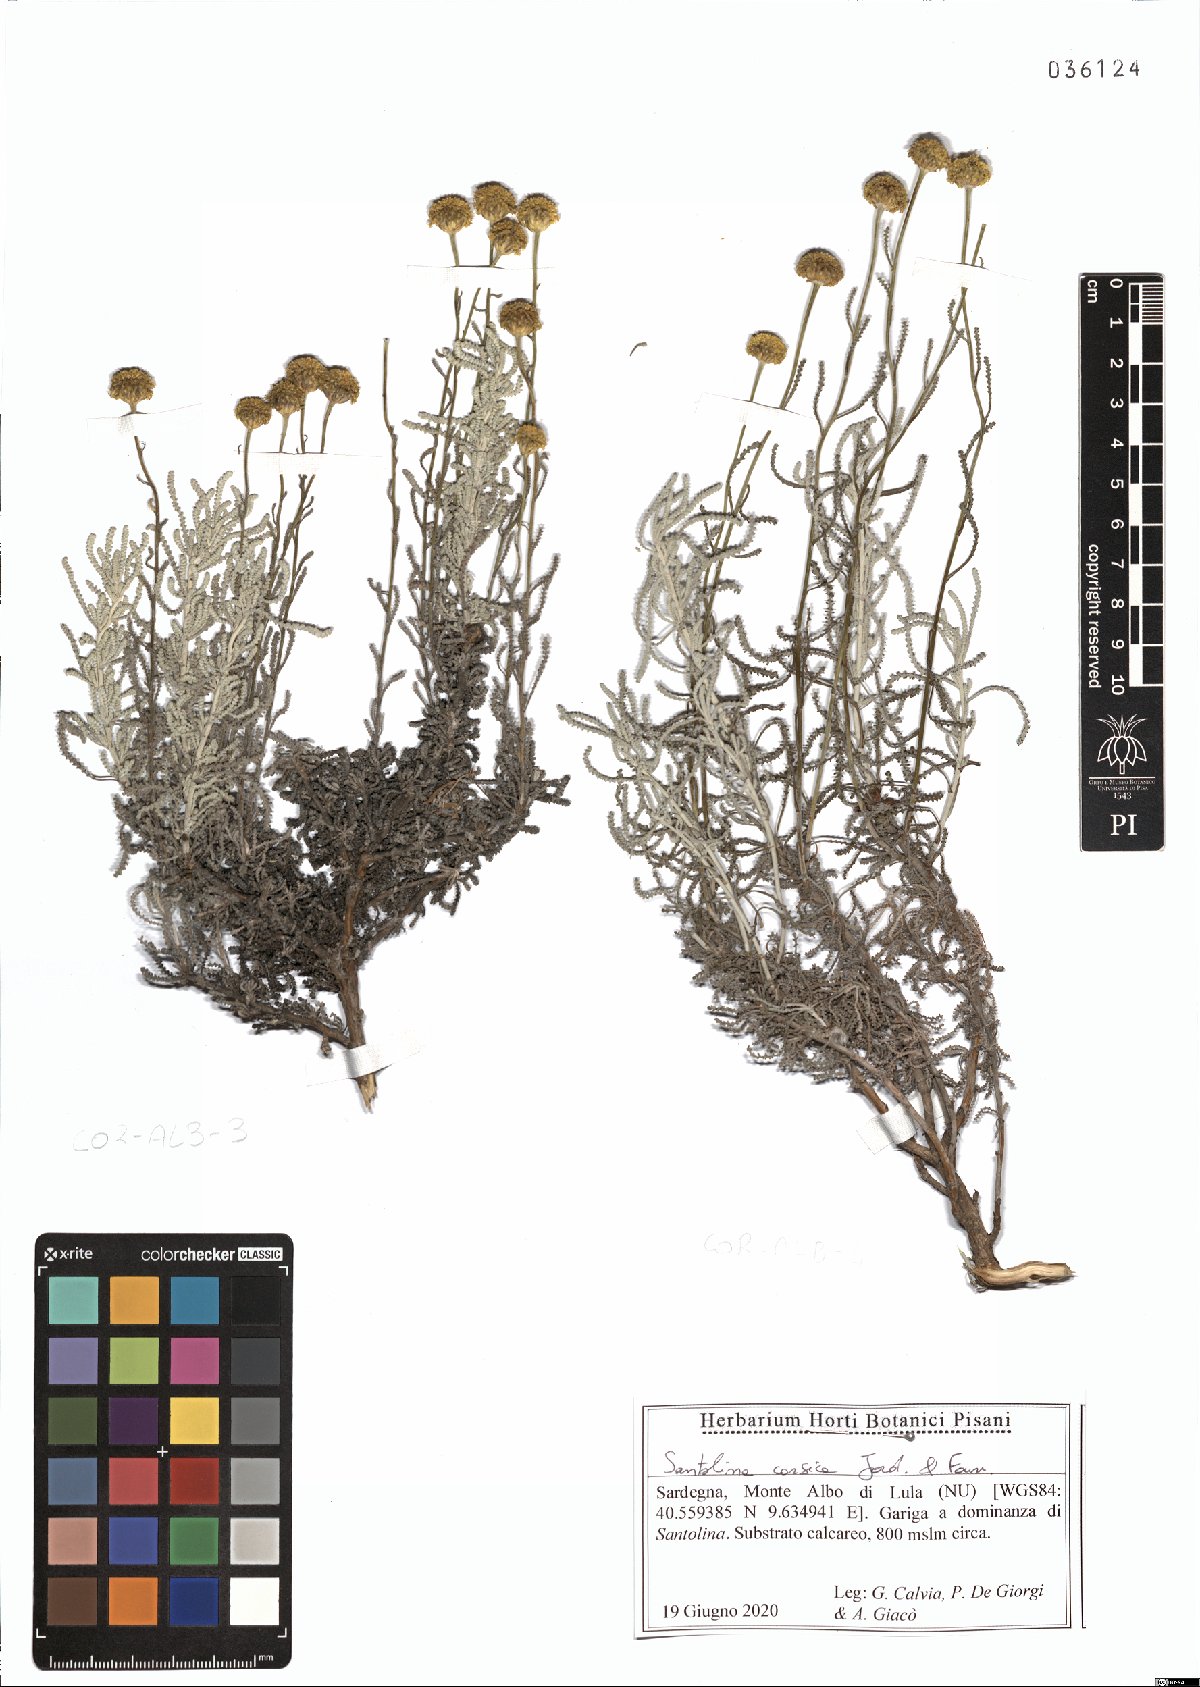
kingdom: Plantae
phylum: Tracheophyta
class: Magnoliopsida
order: Asterales
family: Asteraceae
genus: Santolina
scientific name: Santolina corsica
